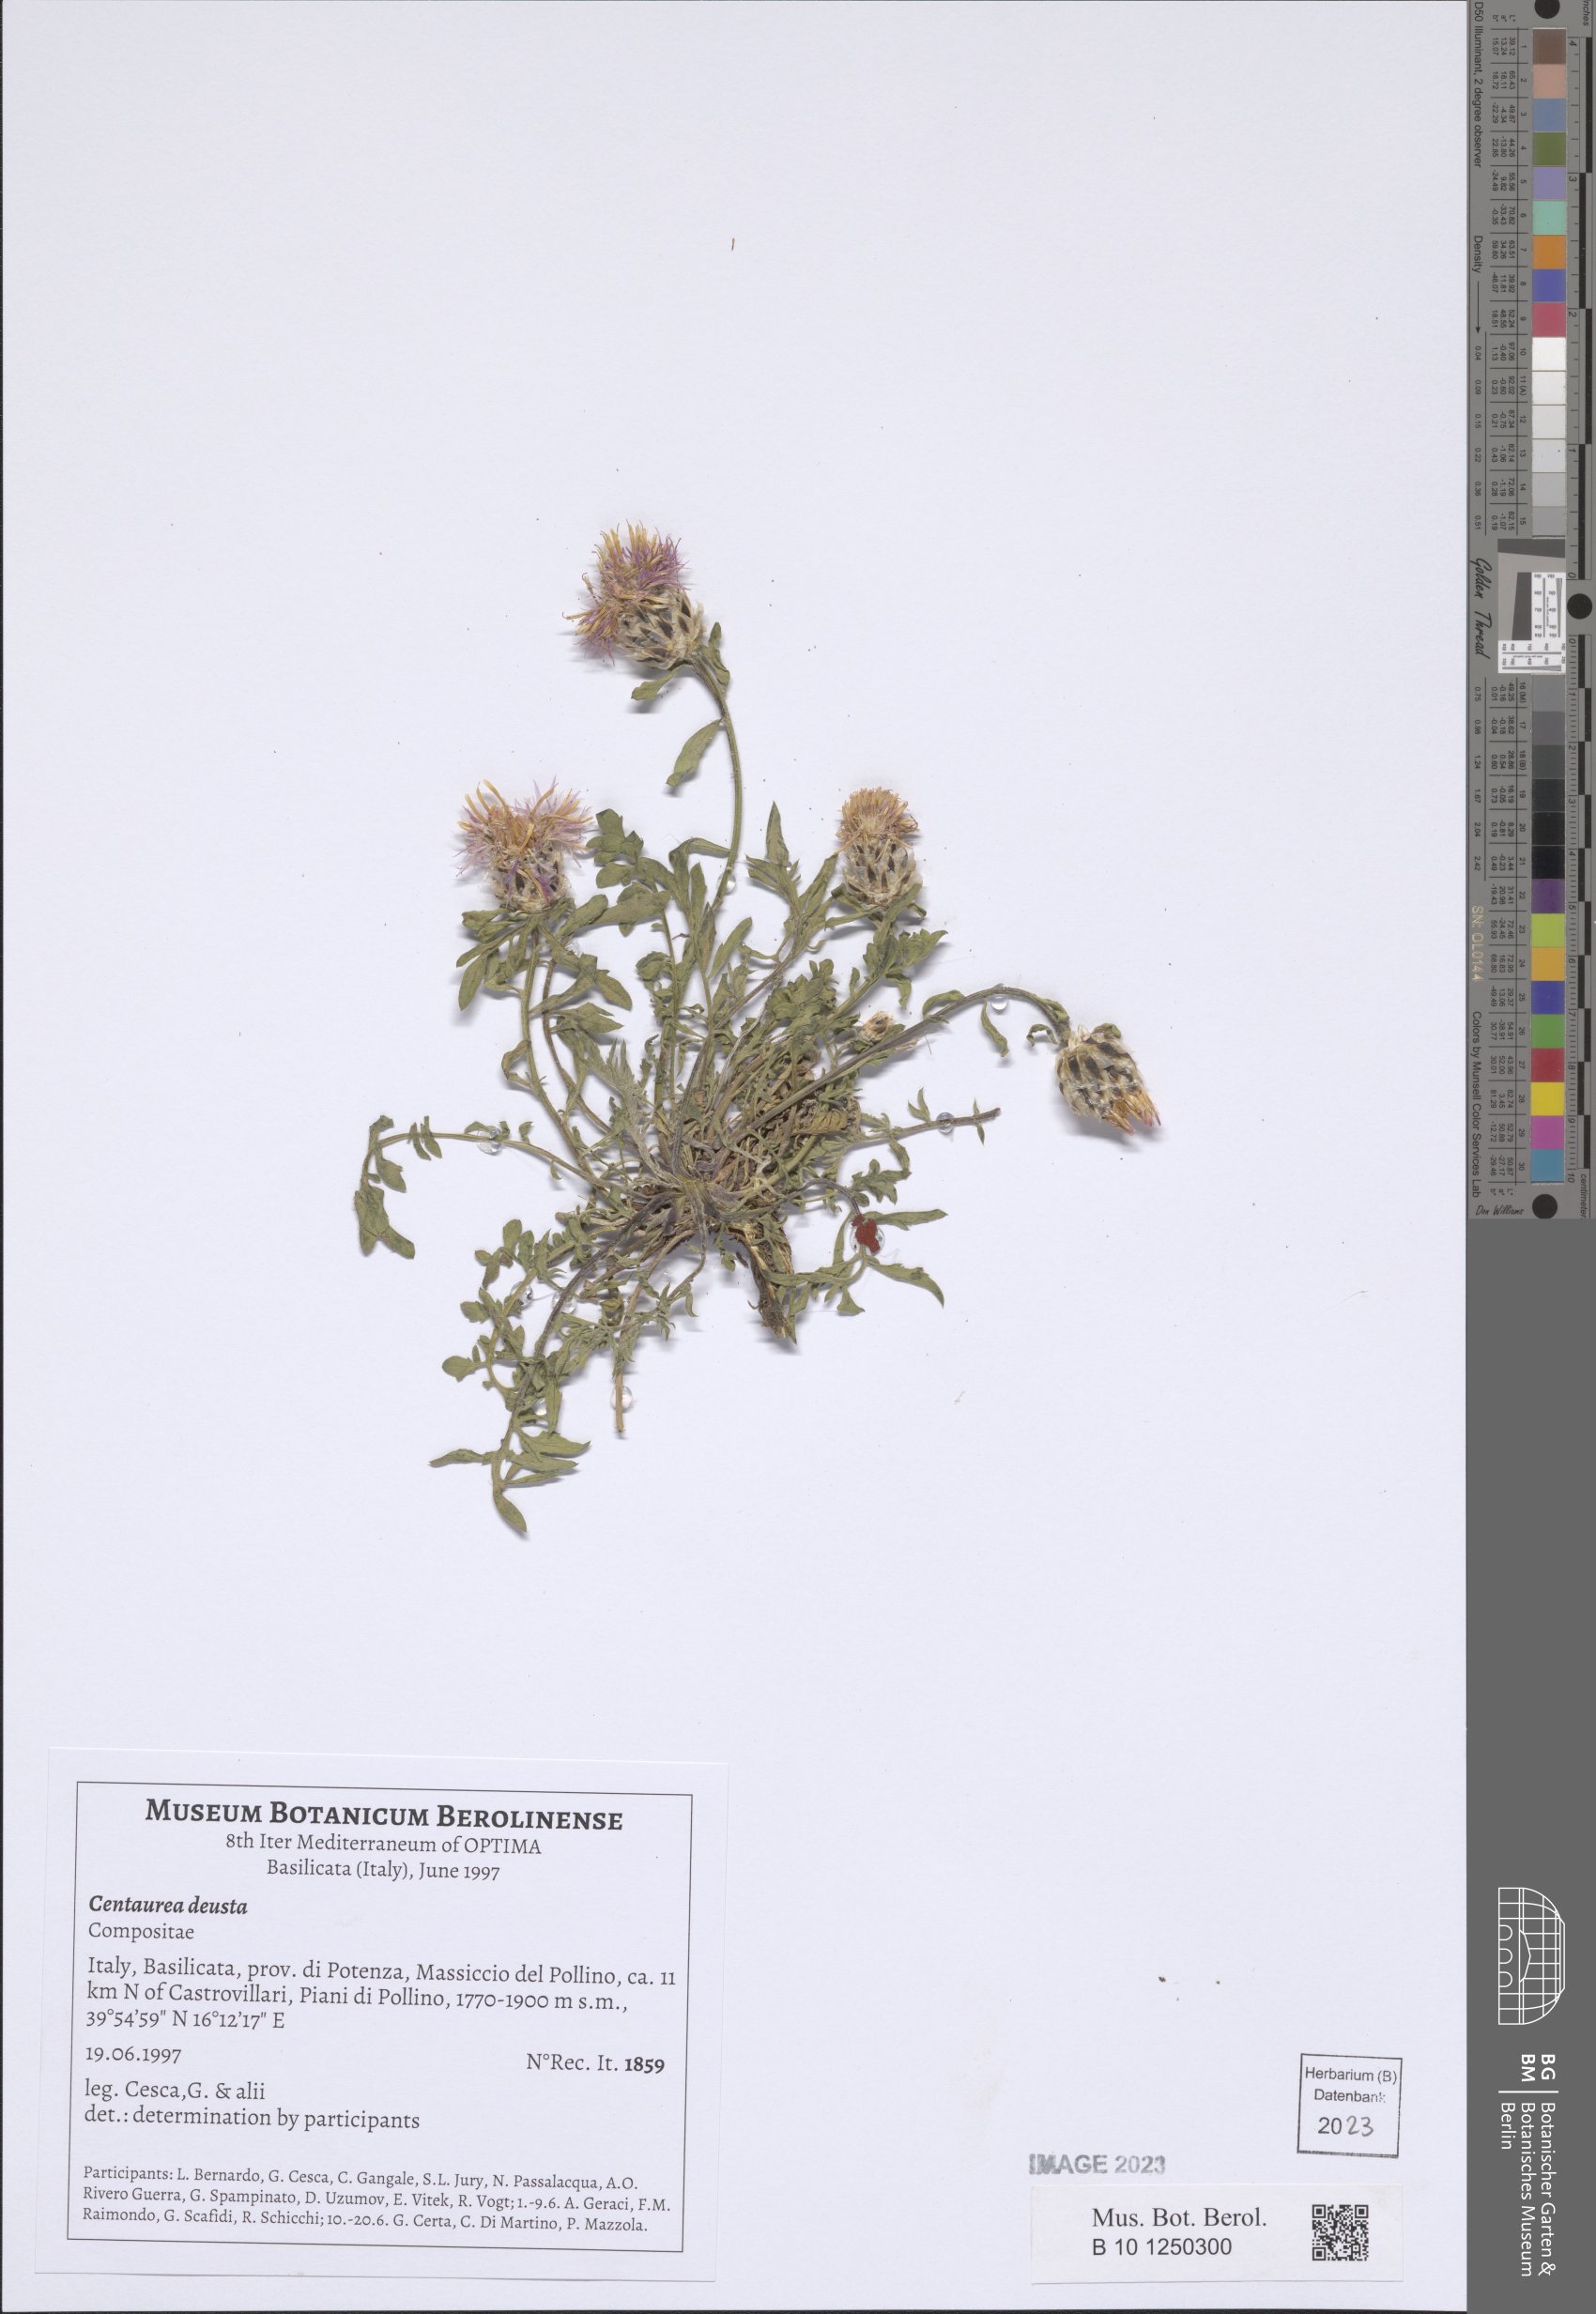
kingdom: Plantae
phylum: Tracheophyta
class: Magnoliopsida
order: Asterales
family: Asteraceae
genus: Centaurea
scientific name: Centaurea deusta
